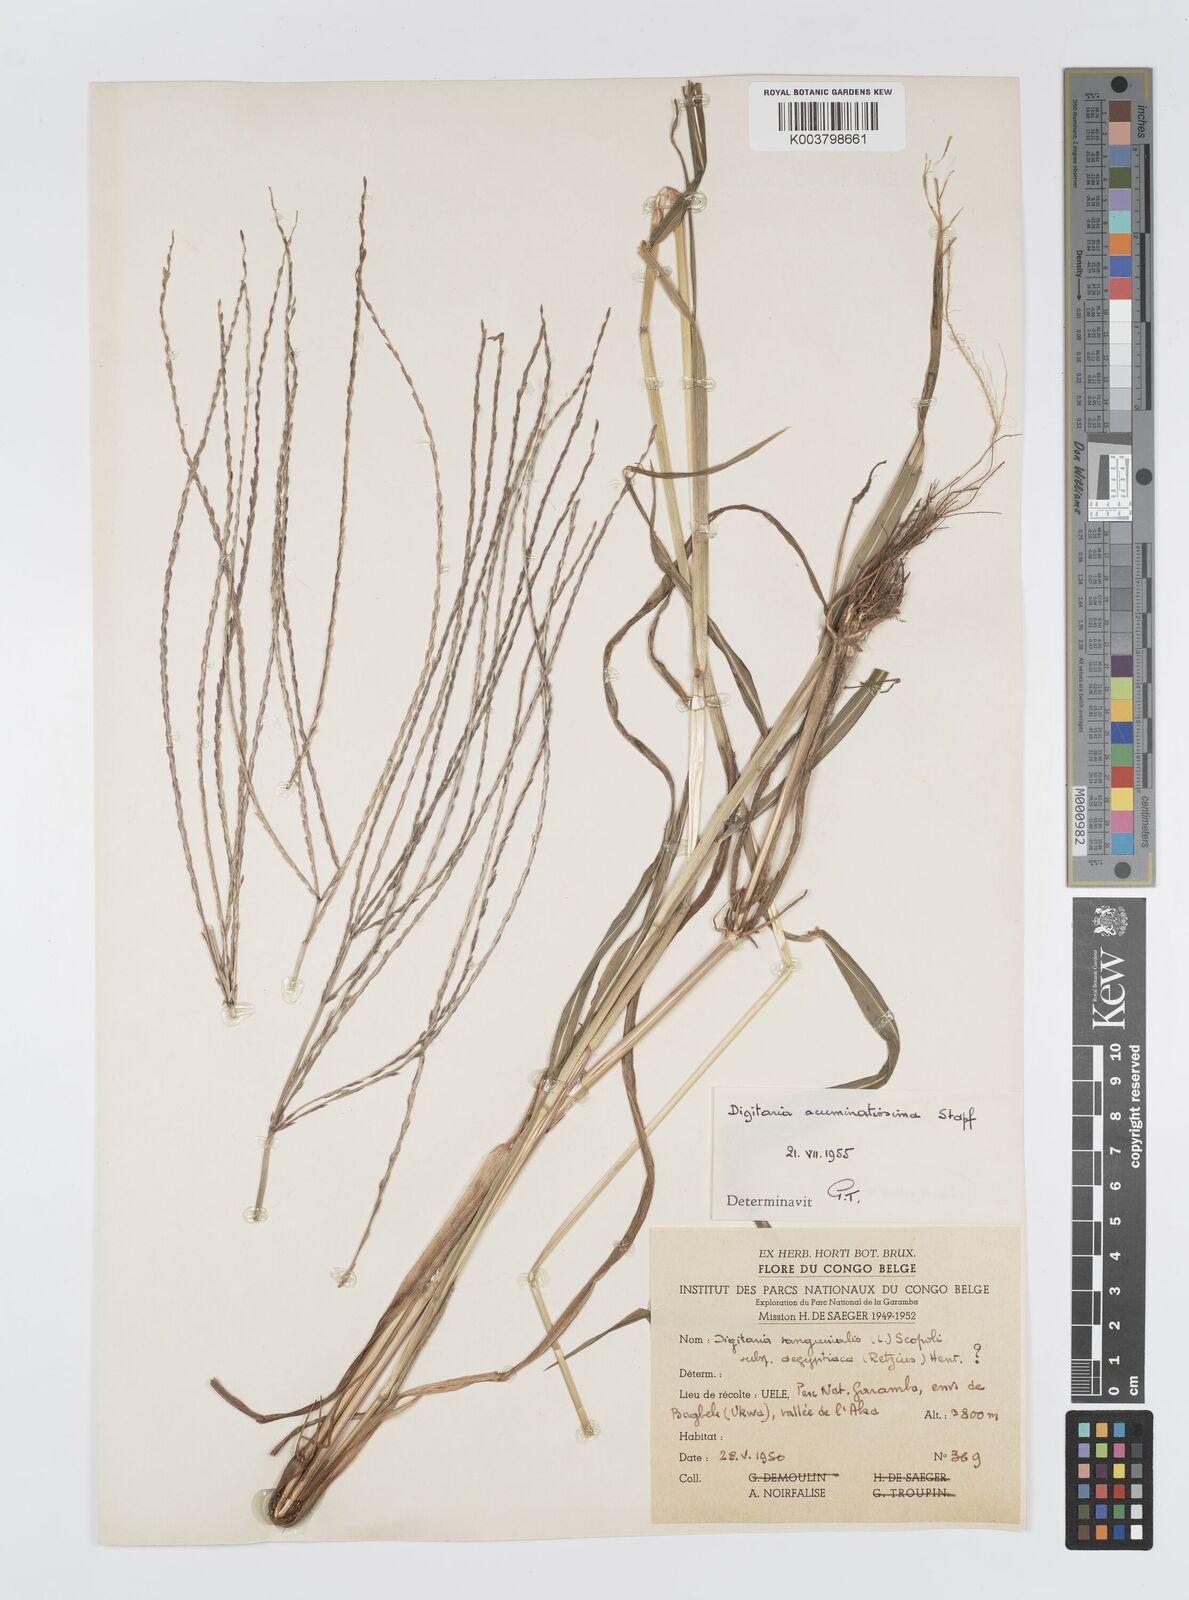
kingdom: Plantae
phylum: Tracheophyta
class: Liliopsida
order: Poales
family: Poaceae
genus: Digitaria
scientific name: Digitaria acuminatissima
